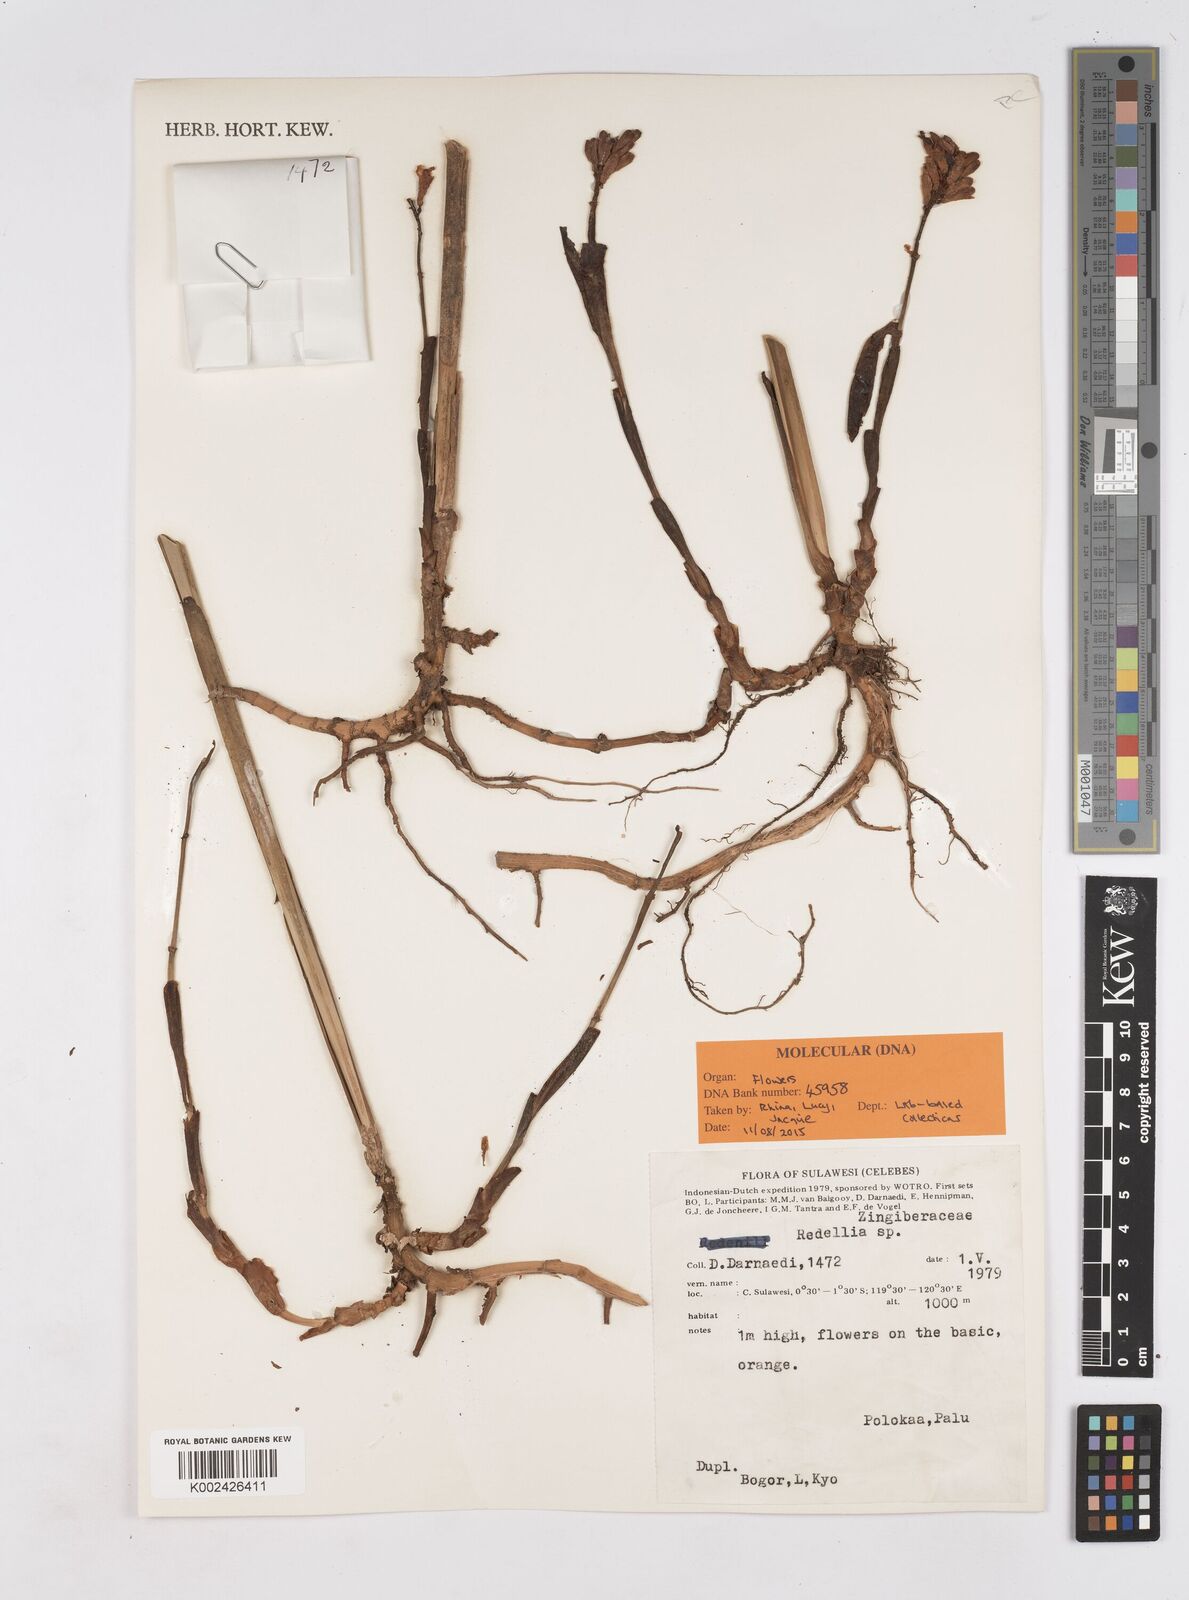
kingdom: Plantae
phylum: Tracheophyta
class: Liliopsida
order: Zingiberales
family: Zingiberaceae
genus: Riedelia
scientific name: Riedelia
